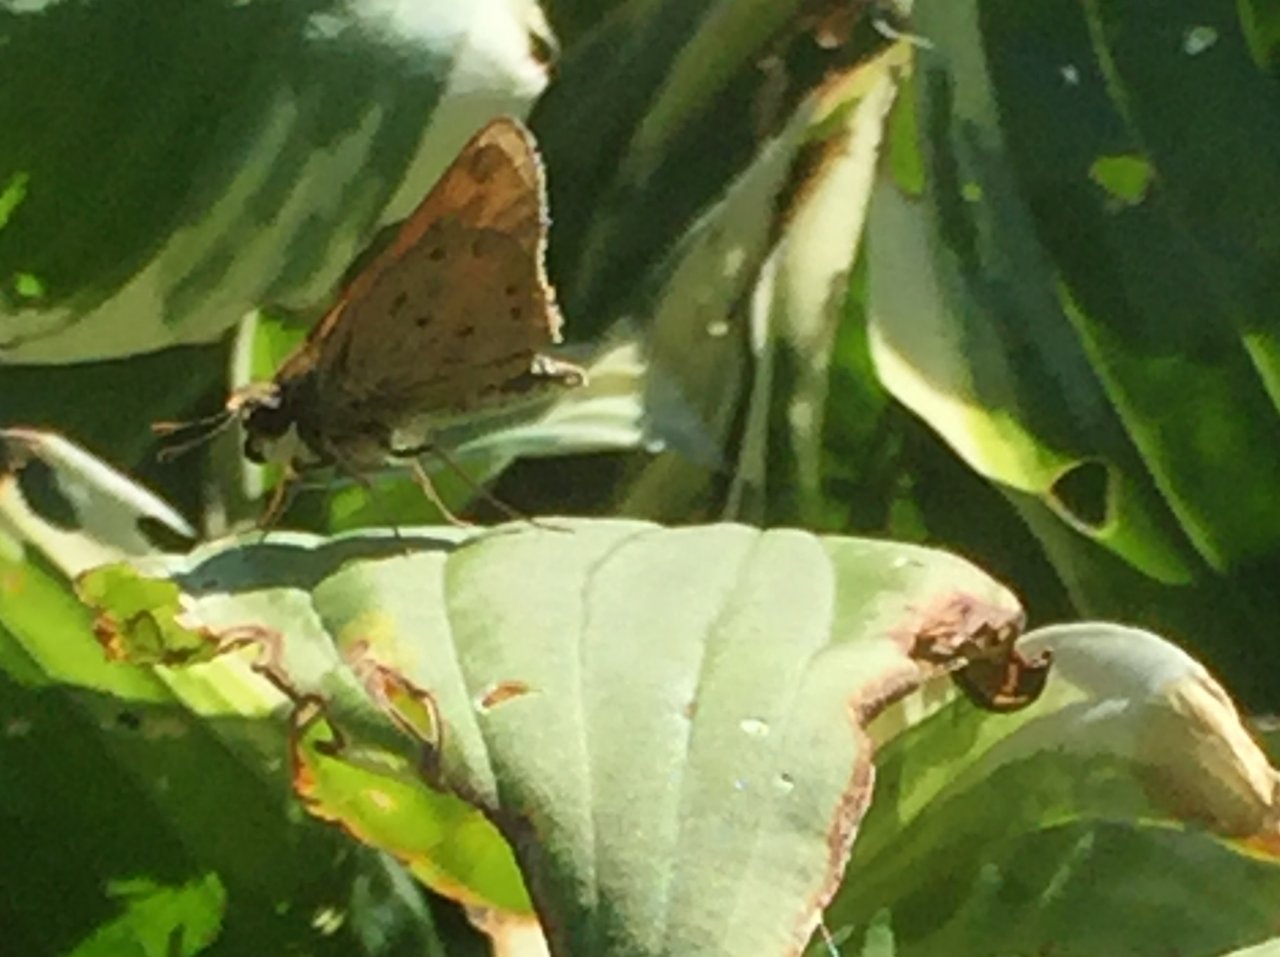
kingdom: Animalia
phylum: Arthropoda
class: Insecta
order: Lepidoptera
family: Hesperiidae
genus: Hylephila
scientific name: Hylephila phyleus
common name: Fiery Skipper
